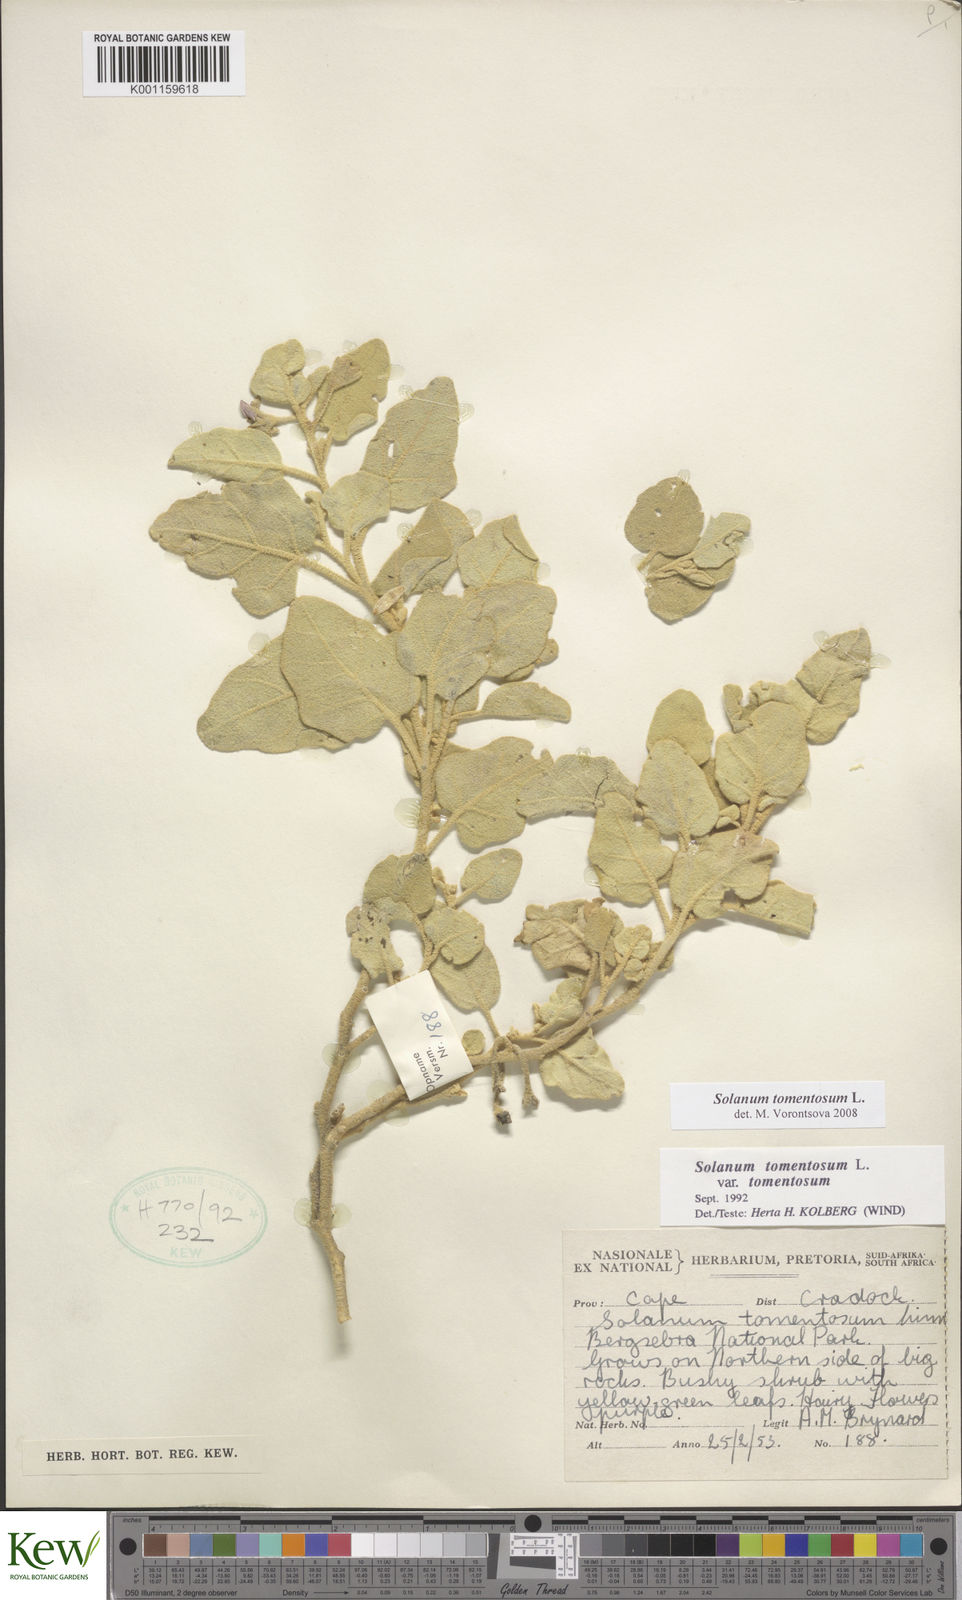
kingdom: Plantae
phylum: Tracheophyta
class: Magnoliopsida
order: Solanales
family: Solanaceae
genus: Solanum
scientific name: Solanum tomentosum
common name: Wild aubergine
